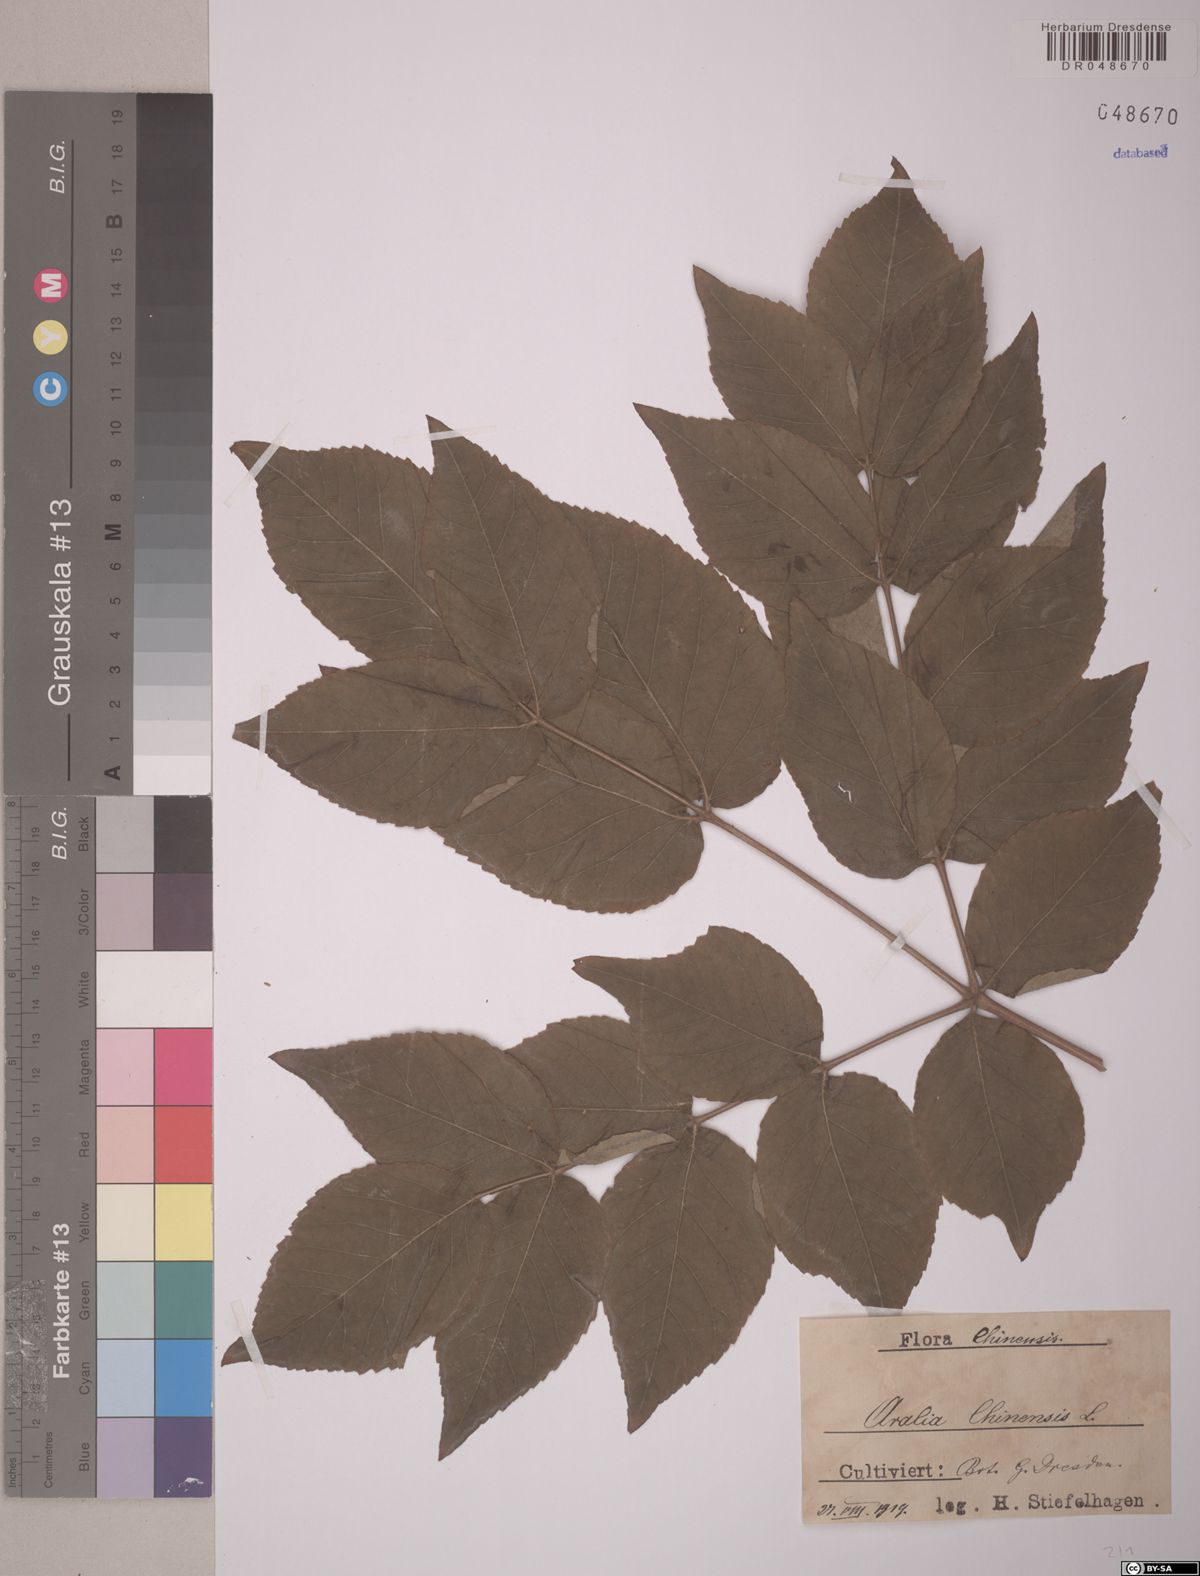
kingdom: Plantae
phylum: Tracheophyta
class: Magnoliopsida
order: Apiales
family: Araliaceae
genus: Aralia
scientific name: Aralia chinensis
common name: Chinese angelica-tree
